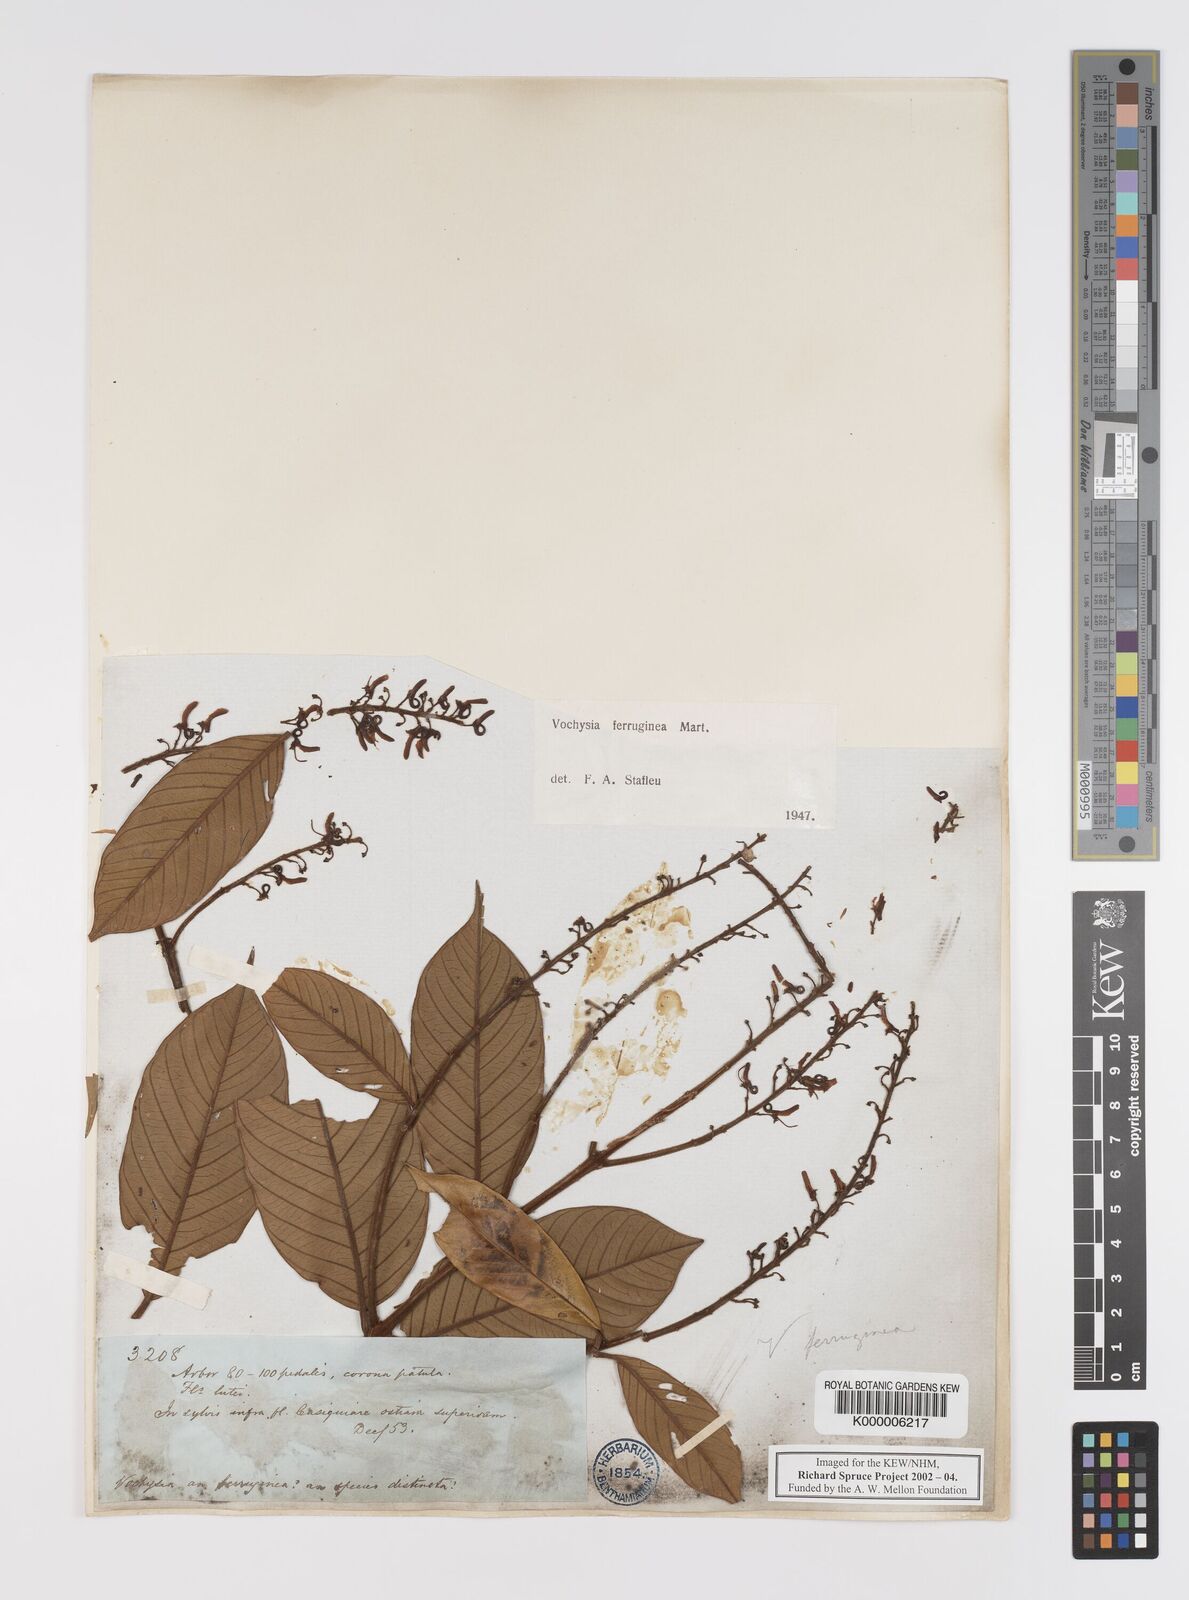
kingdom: Plantae
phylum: Tracheophyta
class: Magnoliopsida
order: Myrtales
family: Vochysiaceae
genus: Vochysia
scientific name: Vochysia
